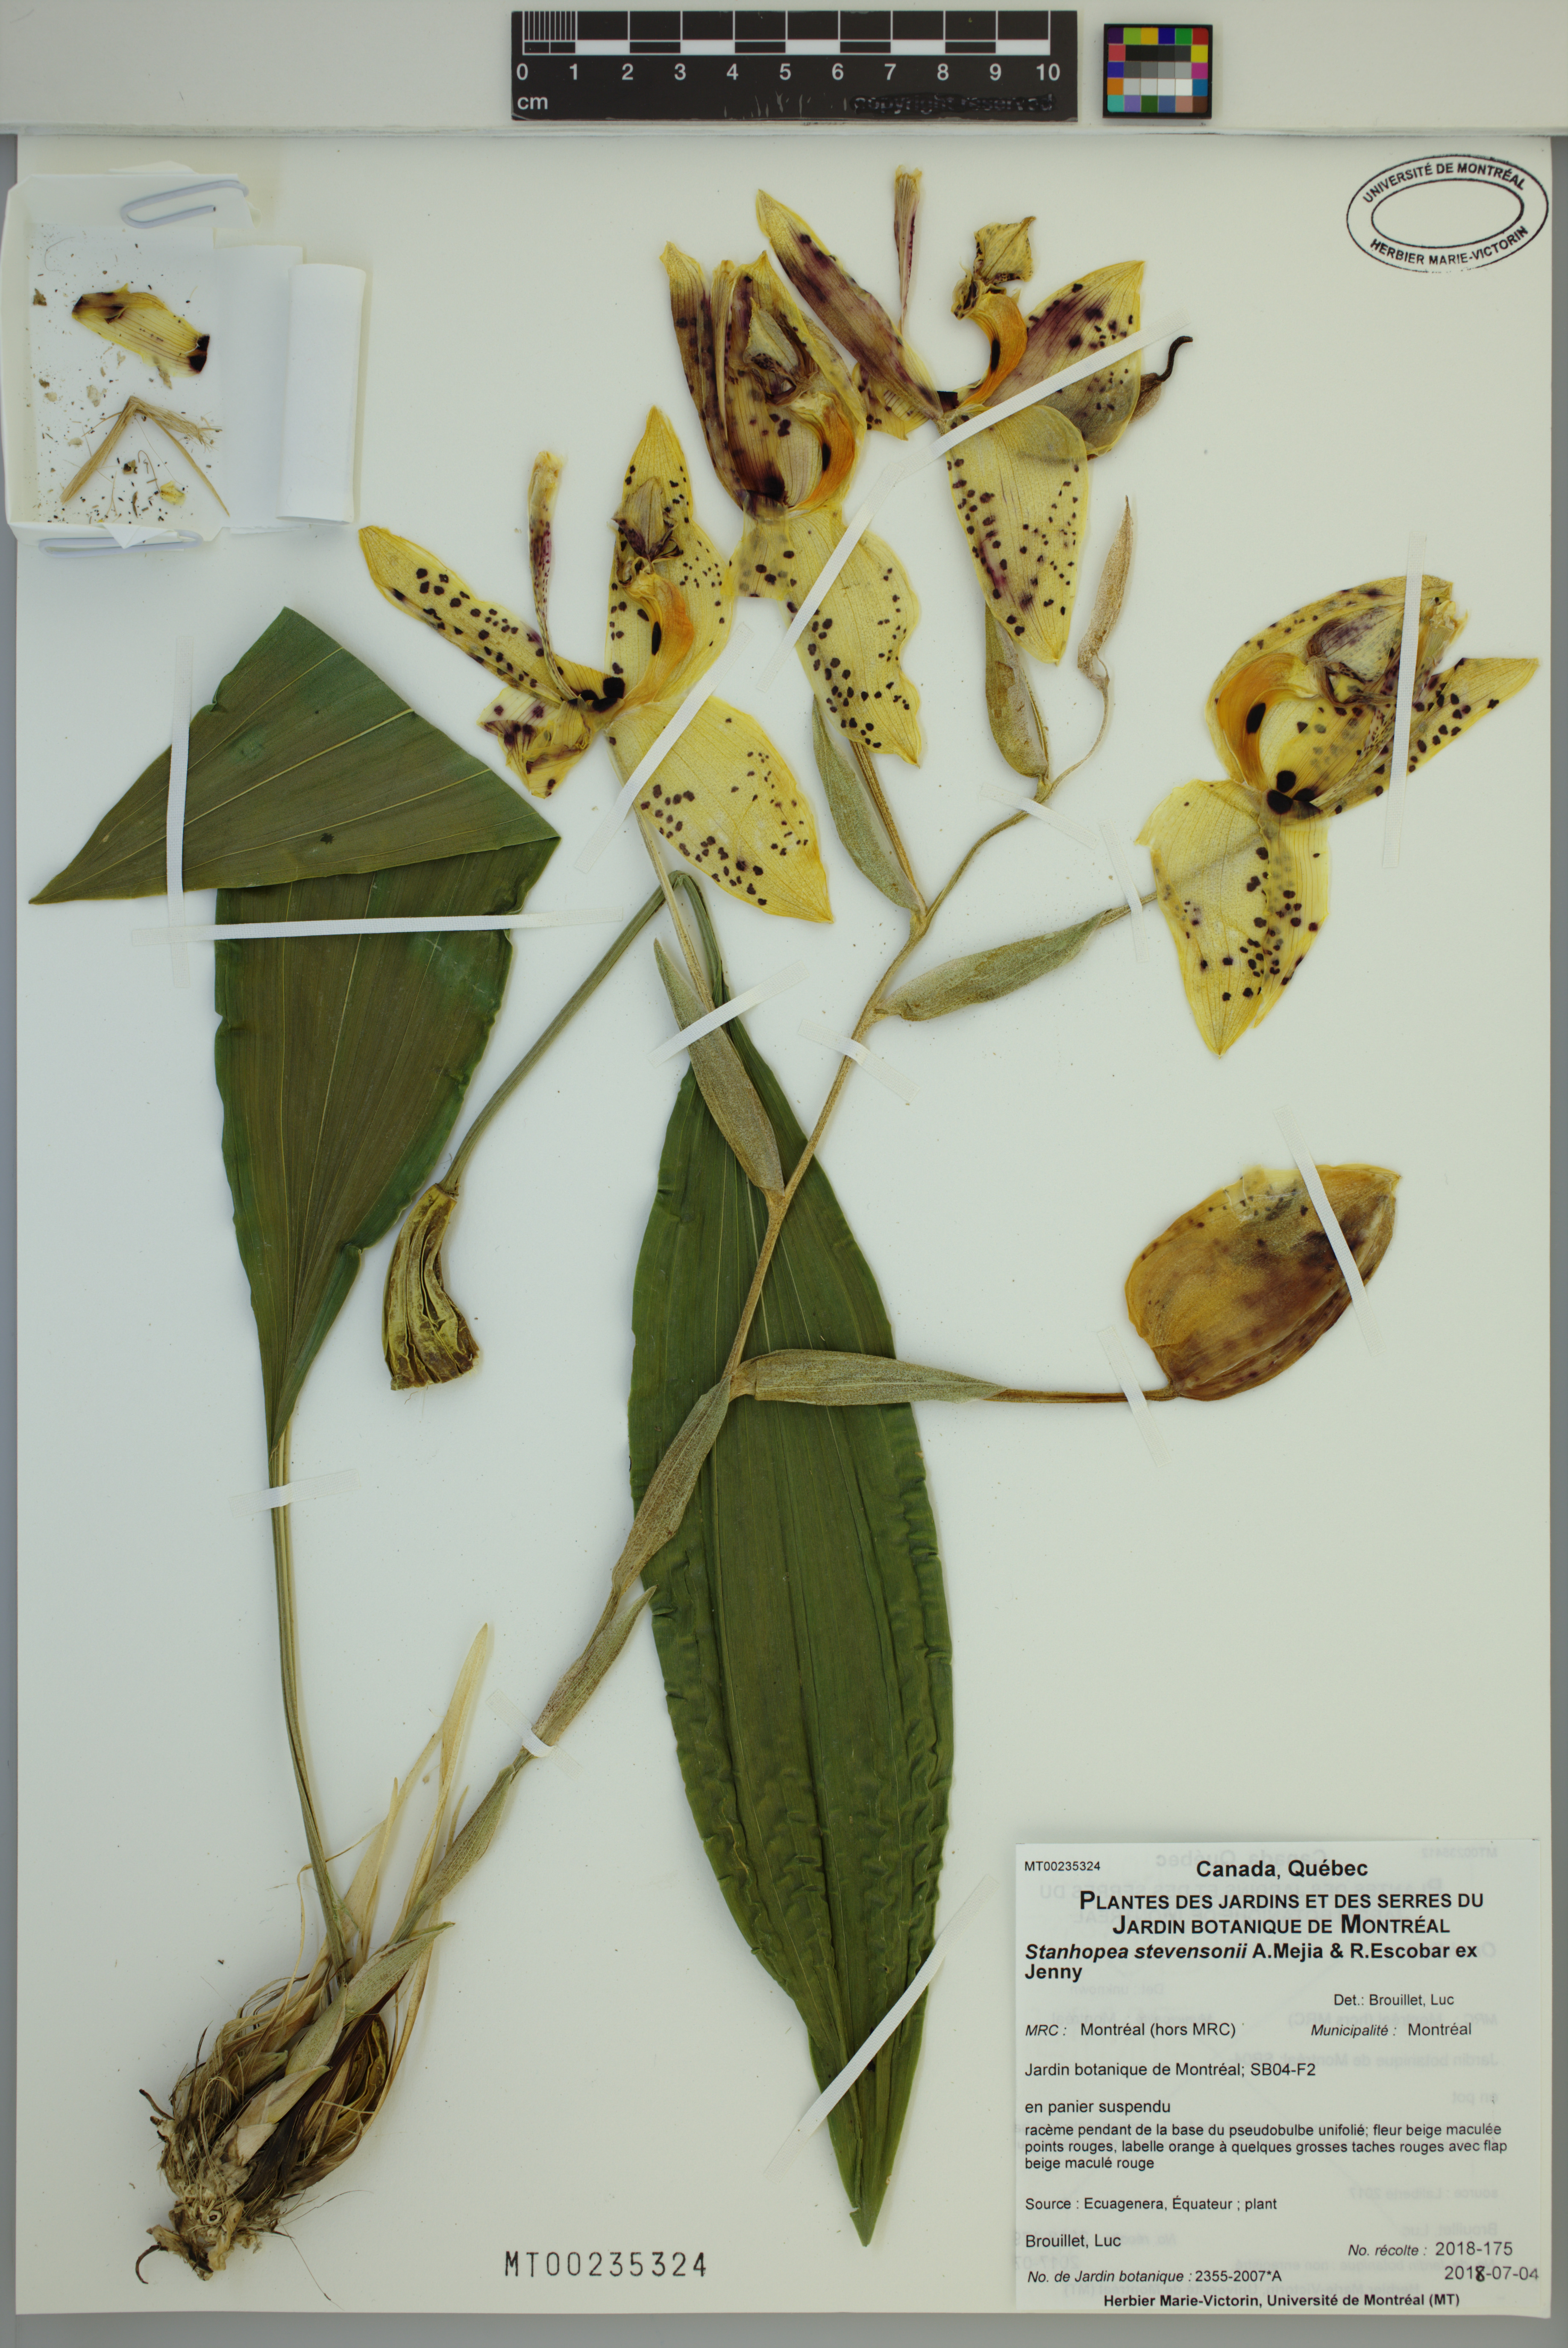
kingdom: Plantae
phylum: Tracheophyta
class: Liliopsida
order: Asparagales
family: Orchidaceae
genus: Stanhopea
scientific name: Stanhopea stevensonii
